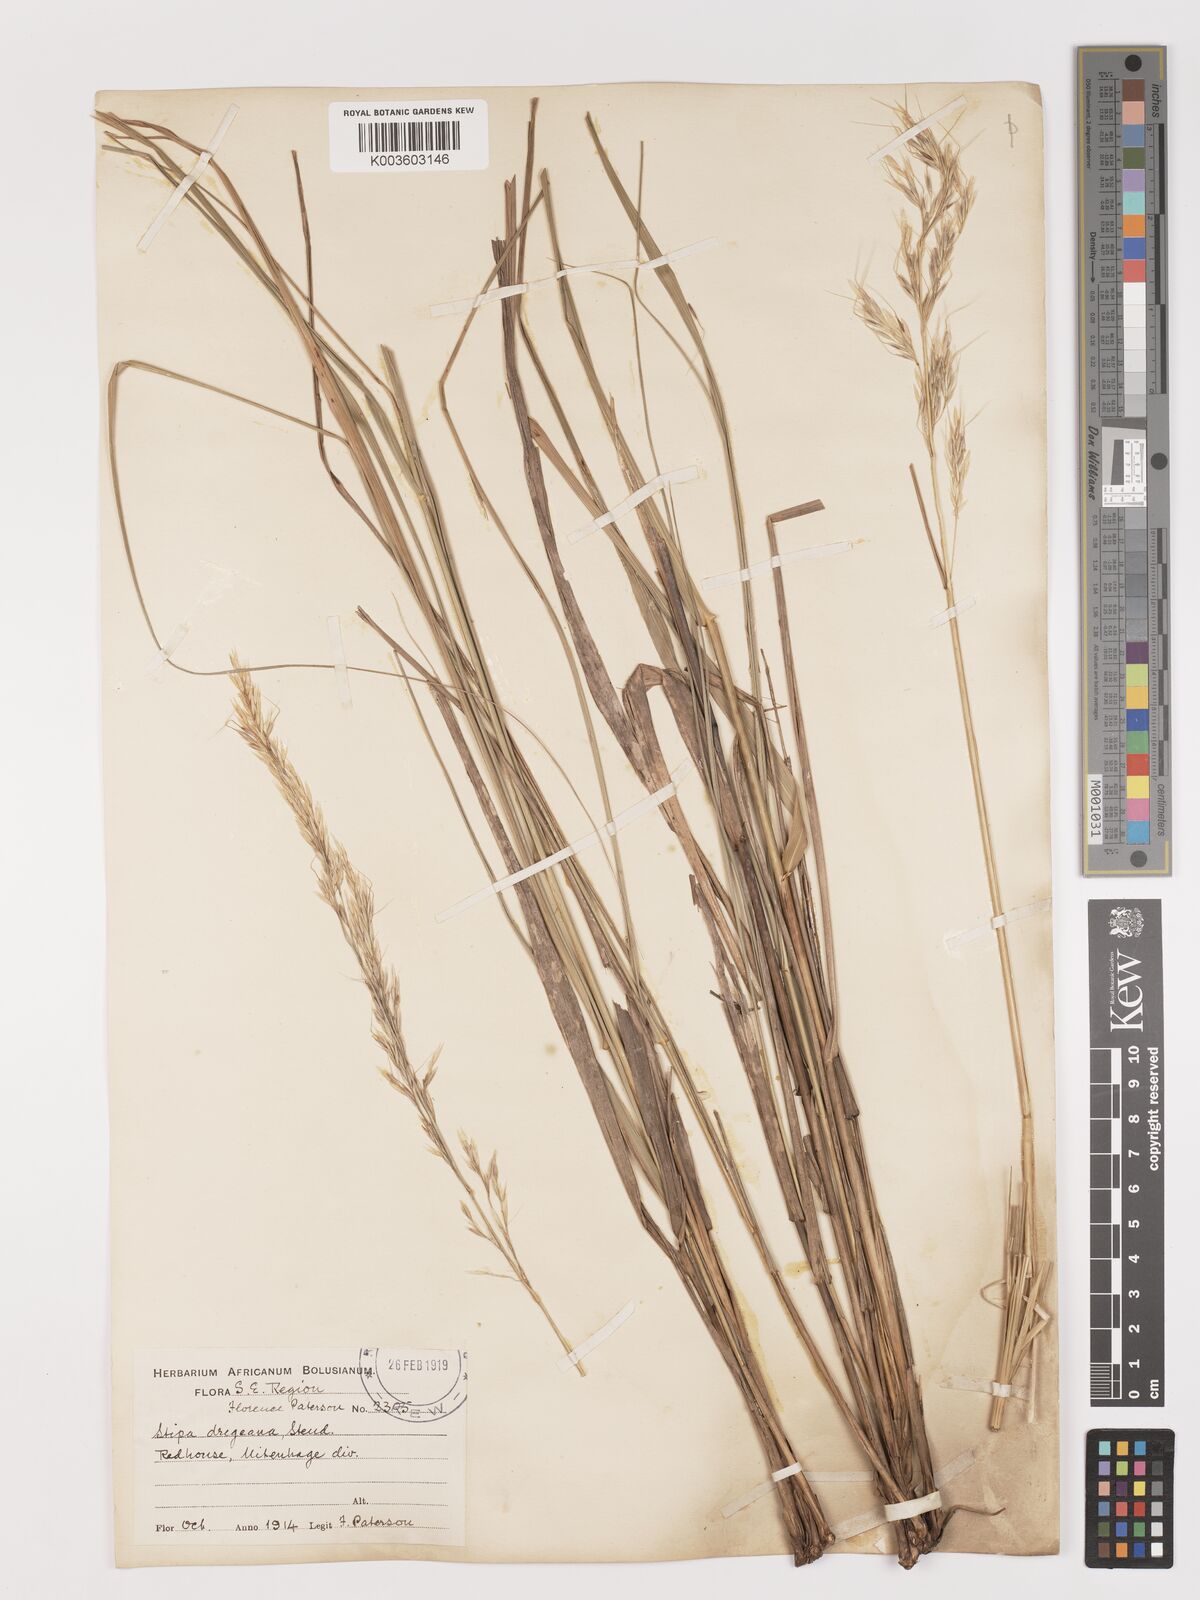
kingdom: Plantae
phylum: Tracheophyta
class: Liliopsida
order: Poales
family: Poaceae
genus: Stipa
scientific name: Stipa dregeana
